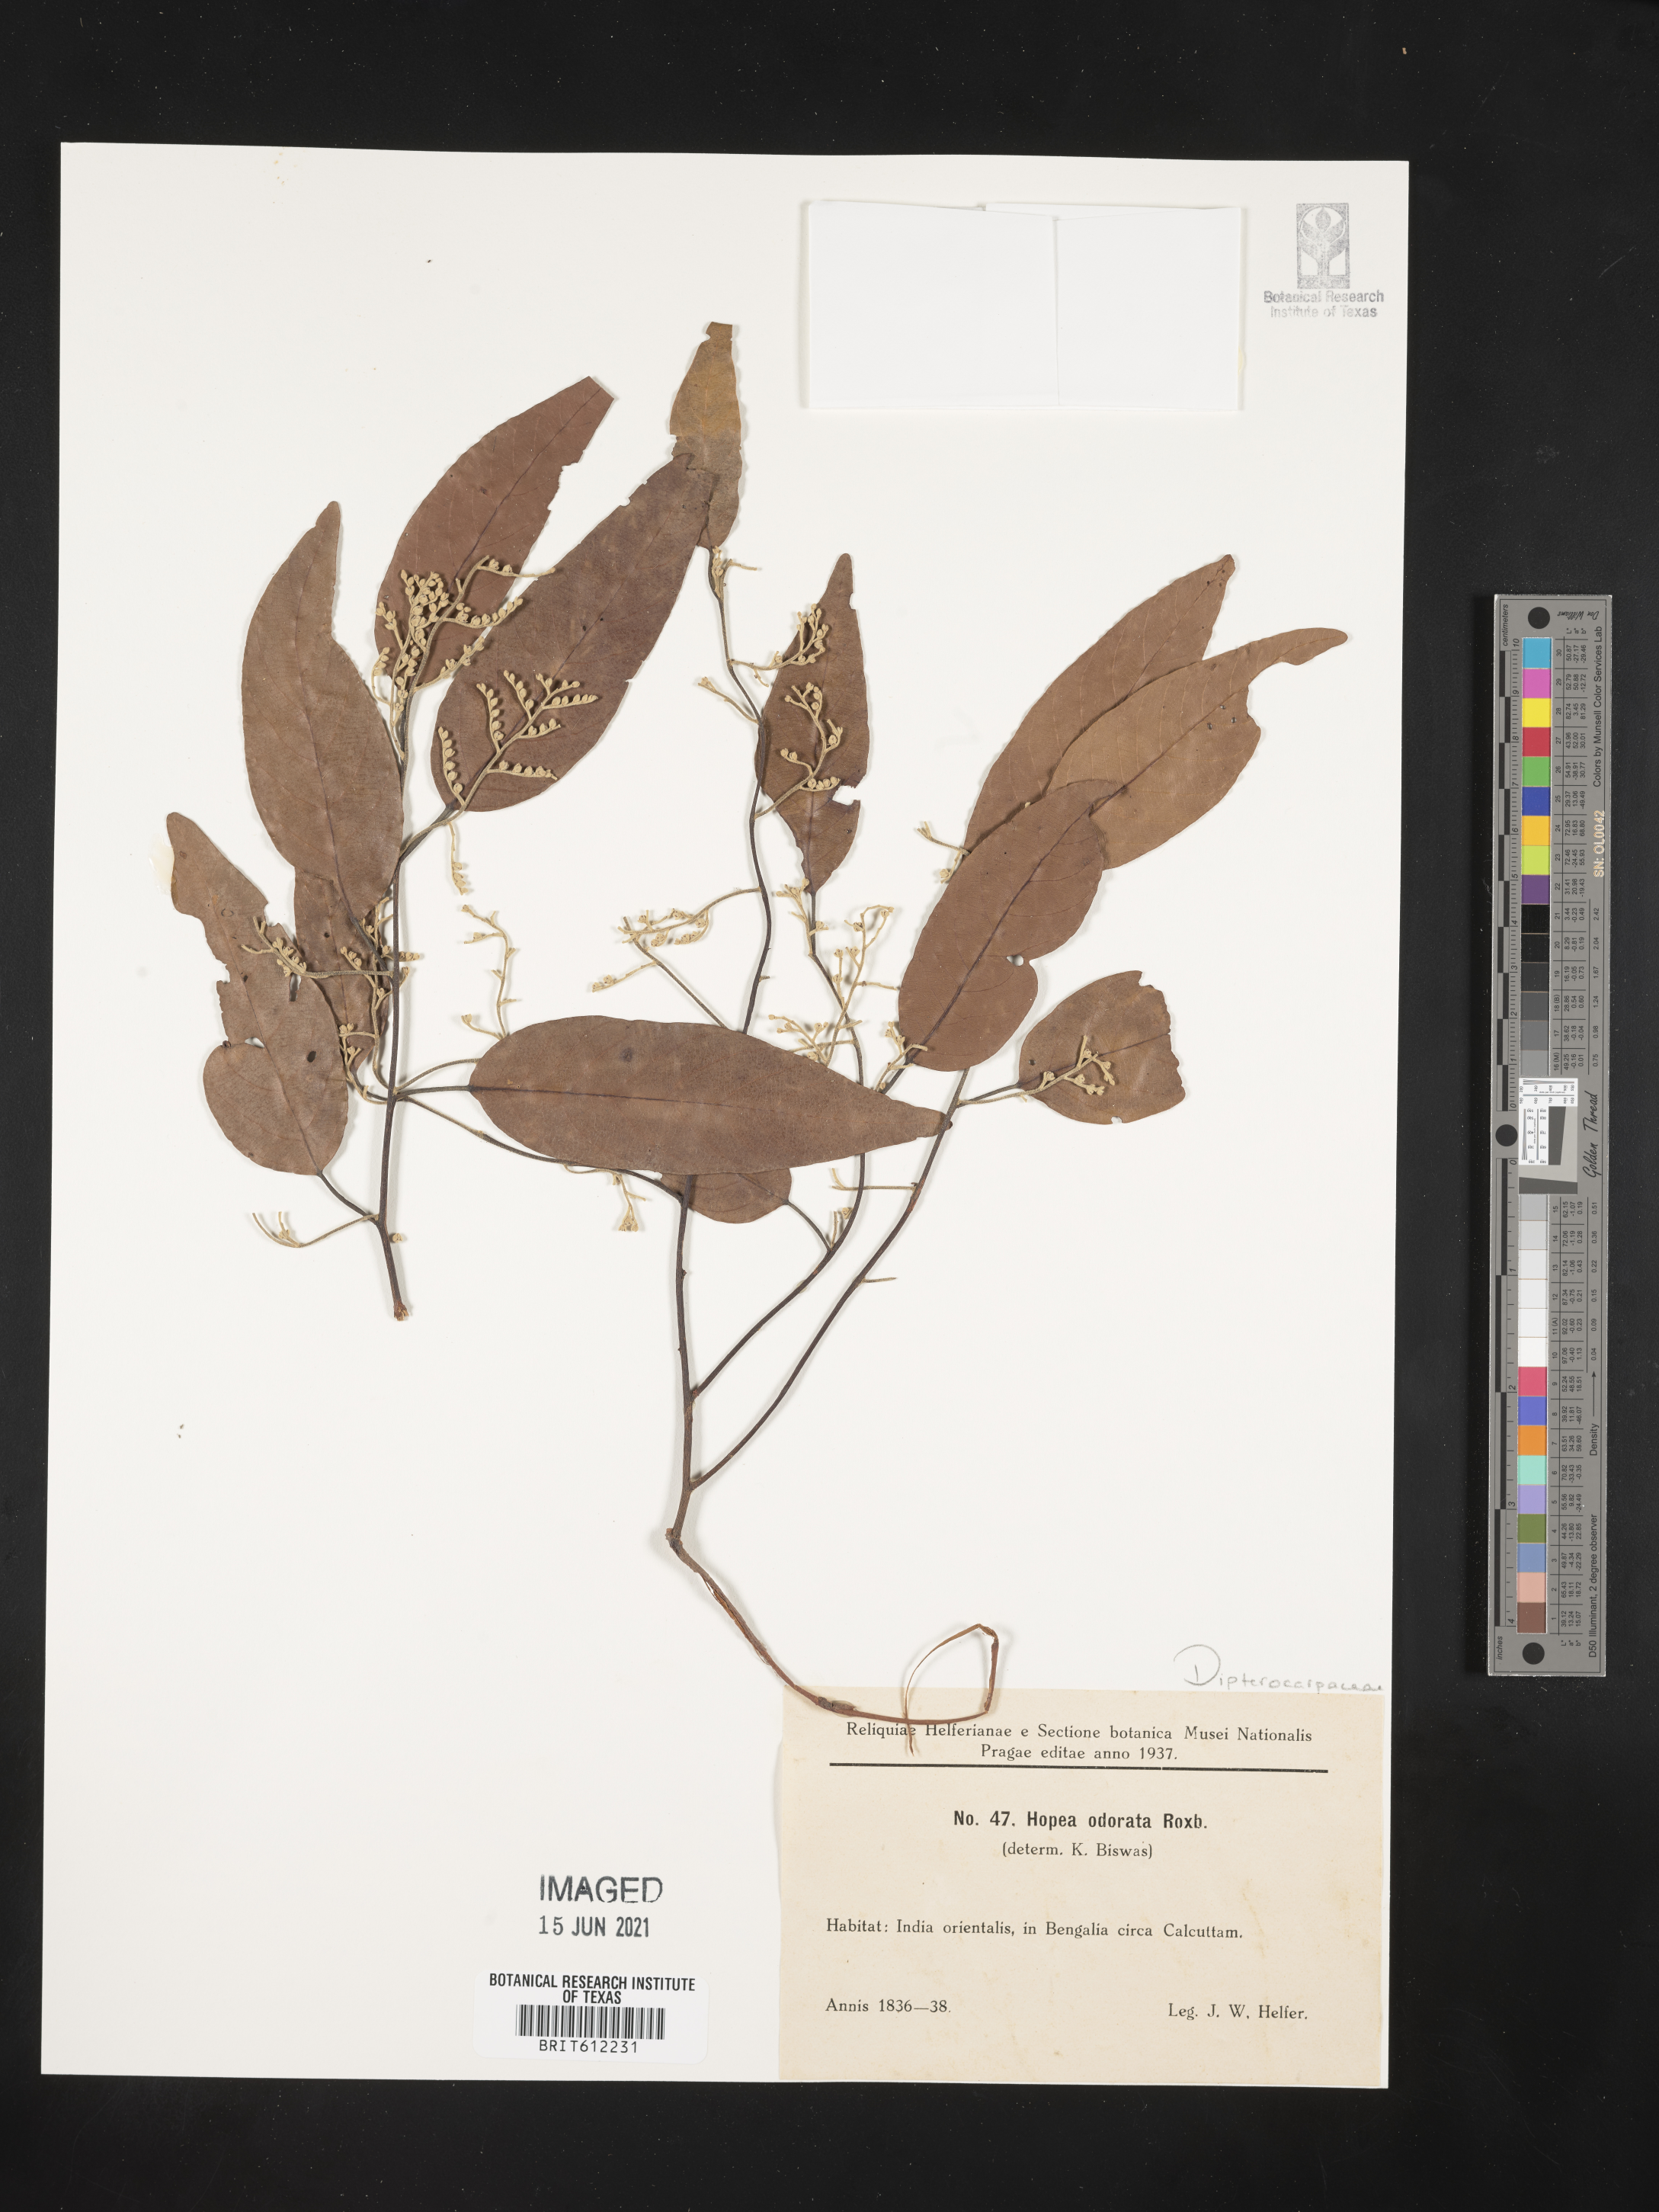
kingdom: Plantae
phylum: Tracheophyta
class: Magnoliopsida
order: Malvales
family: Dipterocarpaceae
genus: Hopea
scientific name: Hopea odorata
